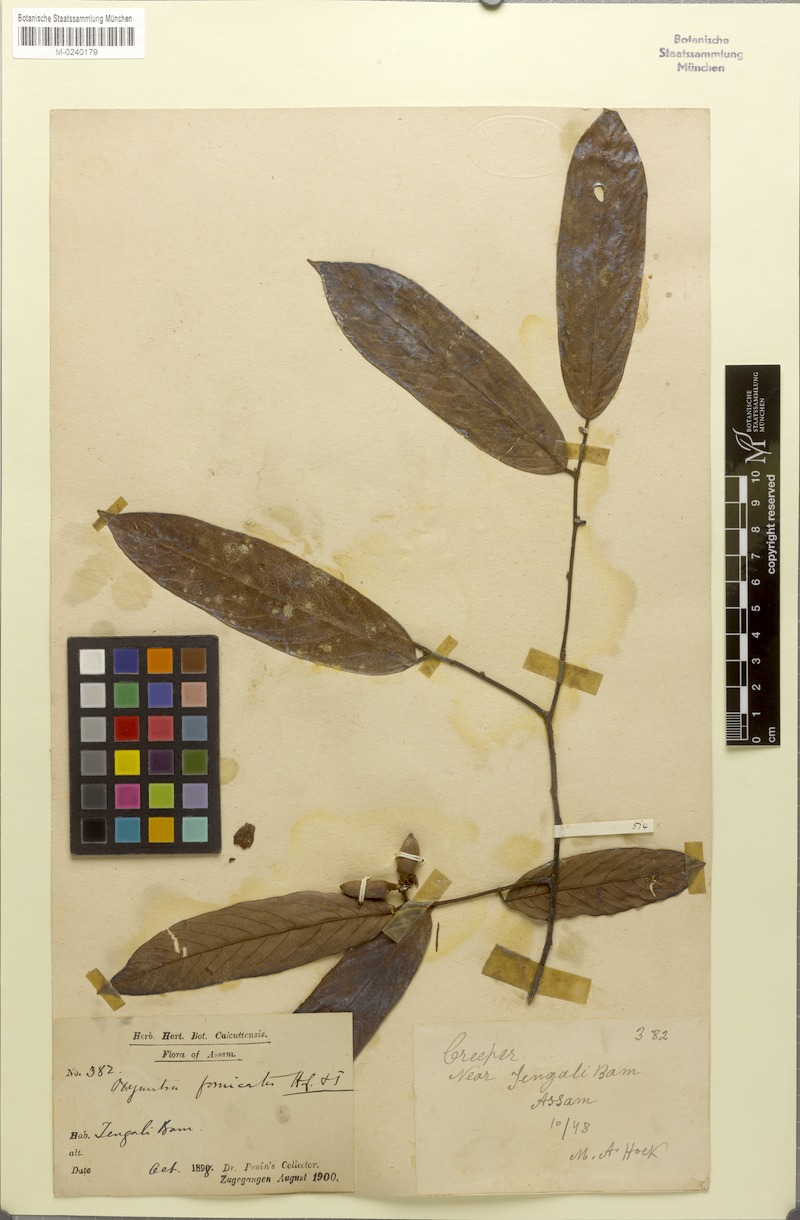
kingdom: Plantae
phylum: Tracheophyta
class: Magnoliopsida
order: Magnoliales
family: Annonaceae
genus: Friesodielsia
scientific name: Friesodielsia fornicata
